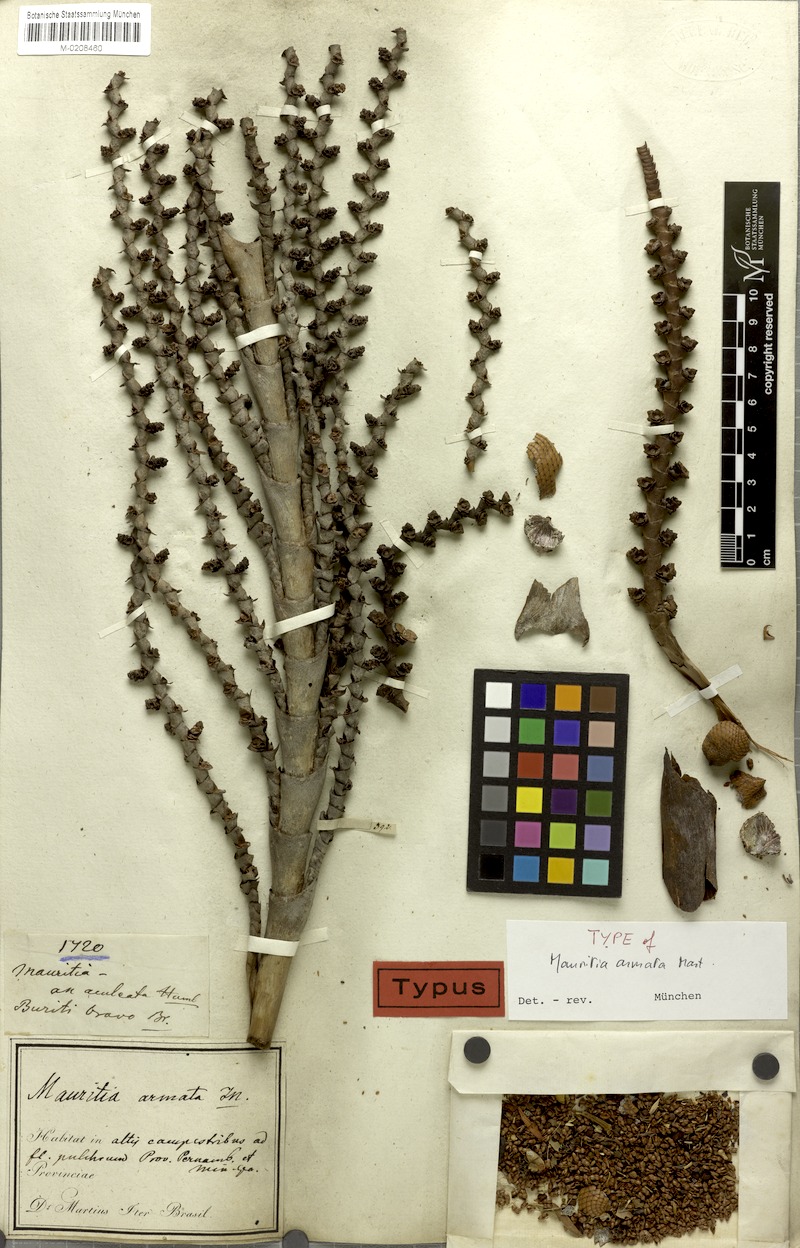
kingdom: Plantae
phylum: Tracheophyta
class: Liliopsida
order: Arecales
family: Arecaceae
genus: Mauritiella
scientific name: Mauritiella armata
